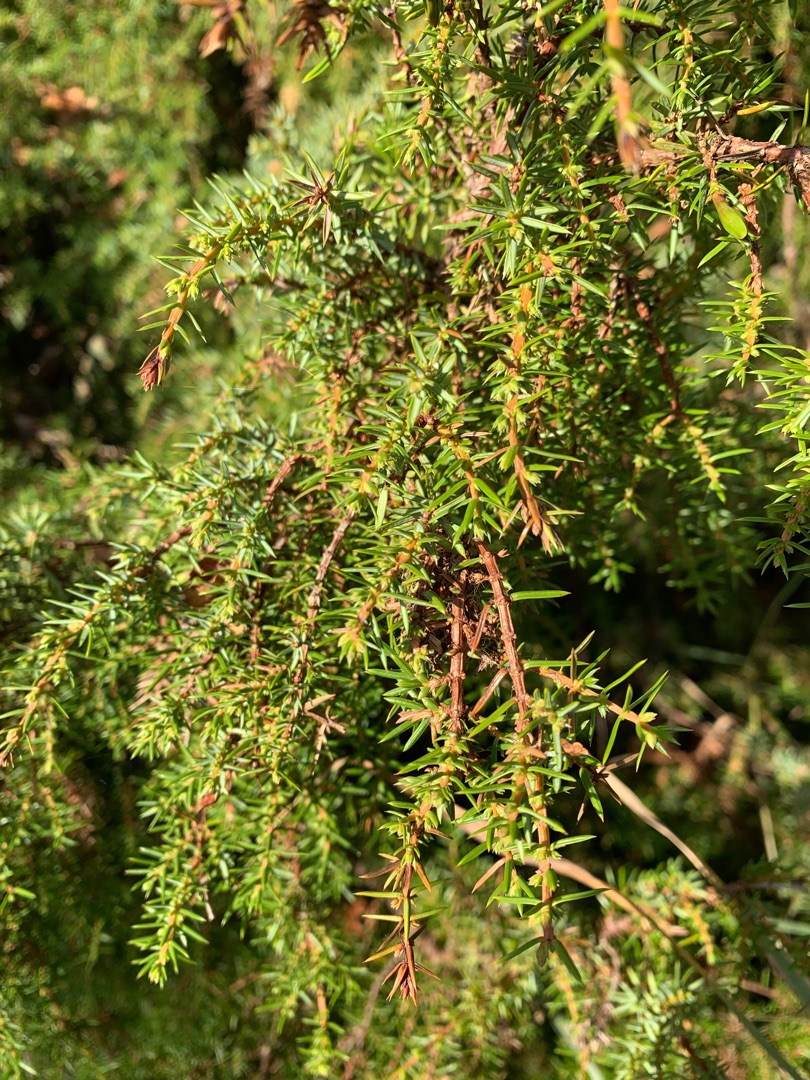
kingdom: Plantae
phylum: Tracheophyta
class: Pinopsida
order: Pinales
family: Cupressaceae
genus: Juniperus
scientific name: Juniperus communis
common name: Almindelig ene
